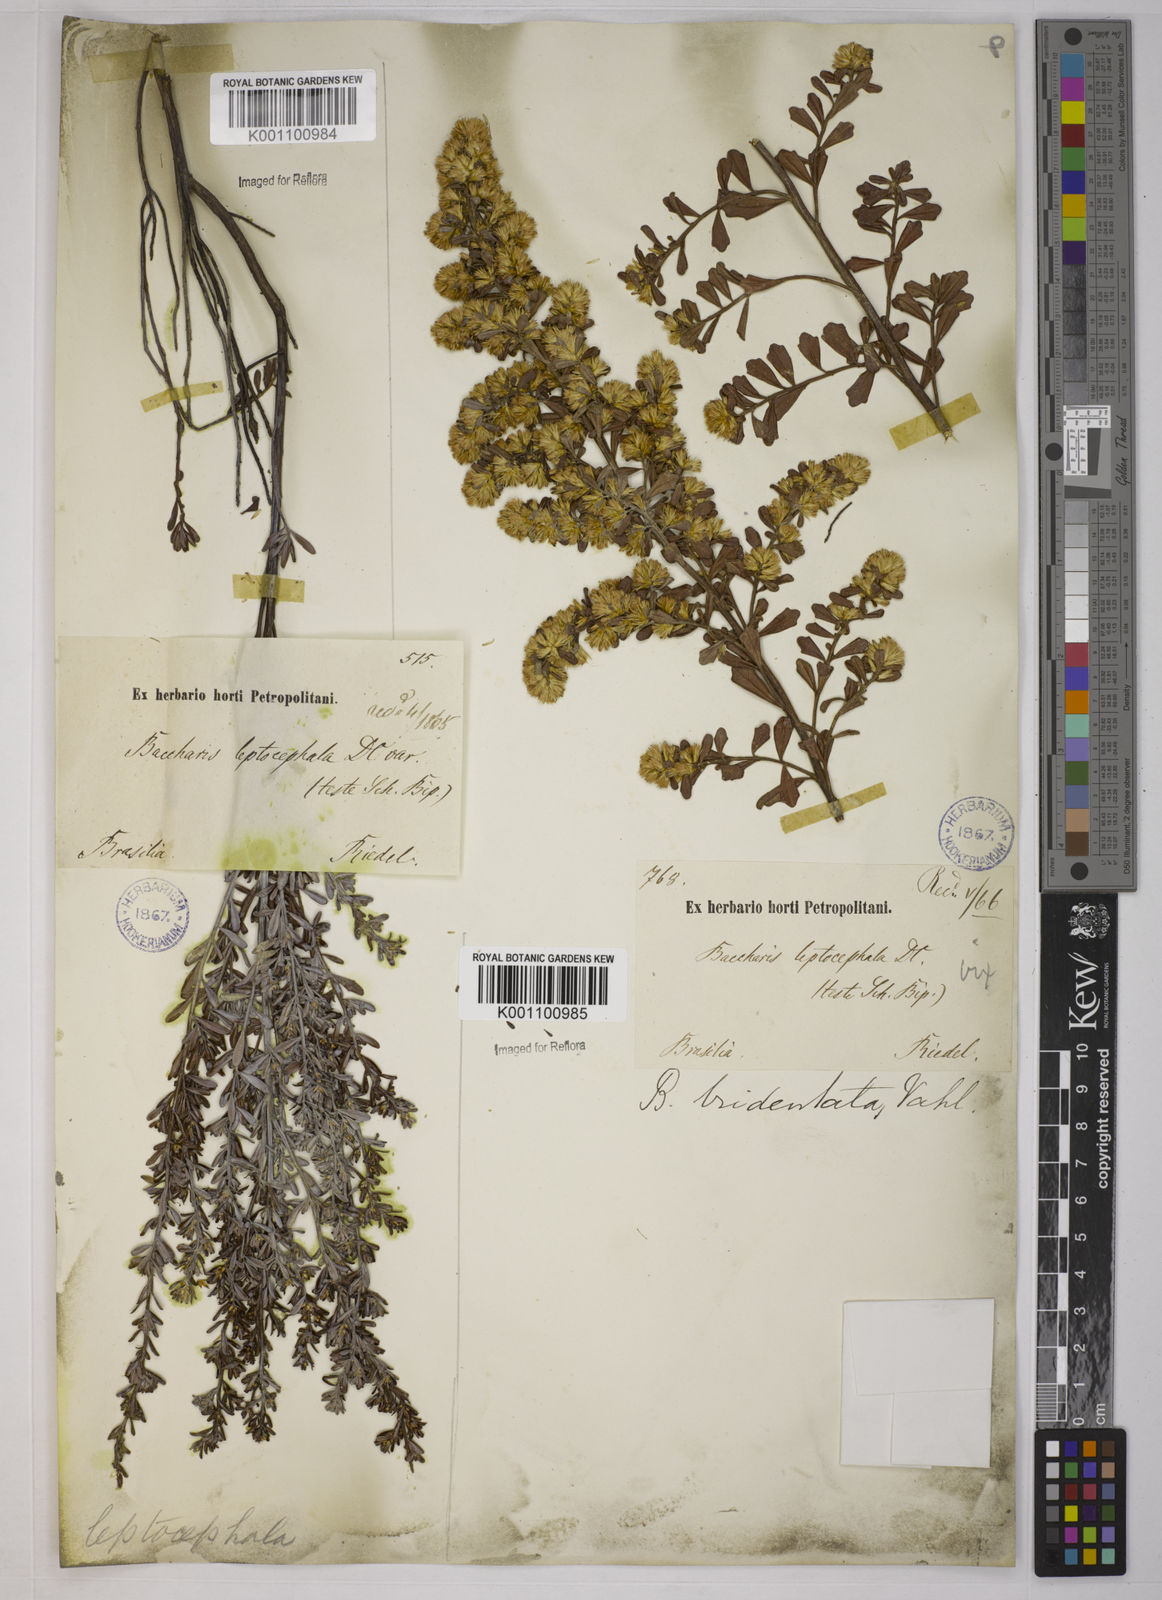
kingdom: Plantae
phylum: Tracheophyta
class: Magnoliopsida
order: Asterales
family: Asteraceae
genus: Baccharis
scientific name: Baccharis tridentata
